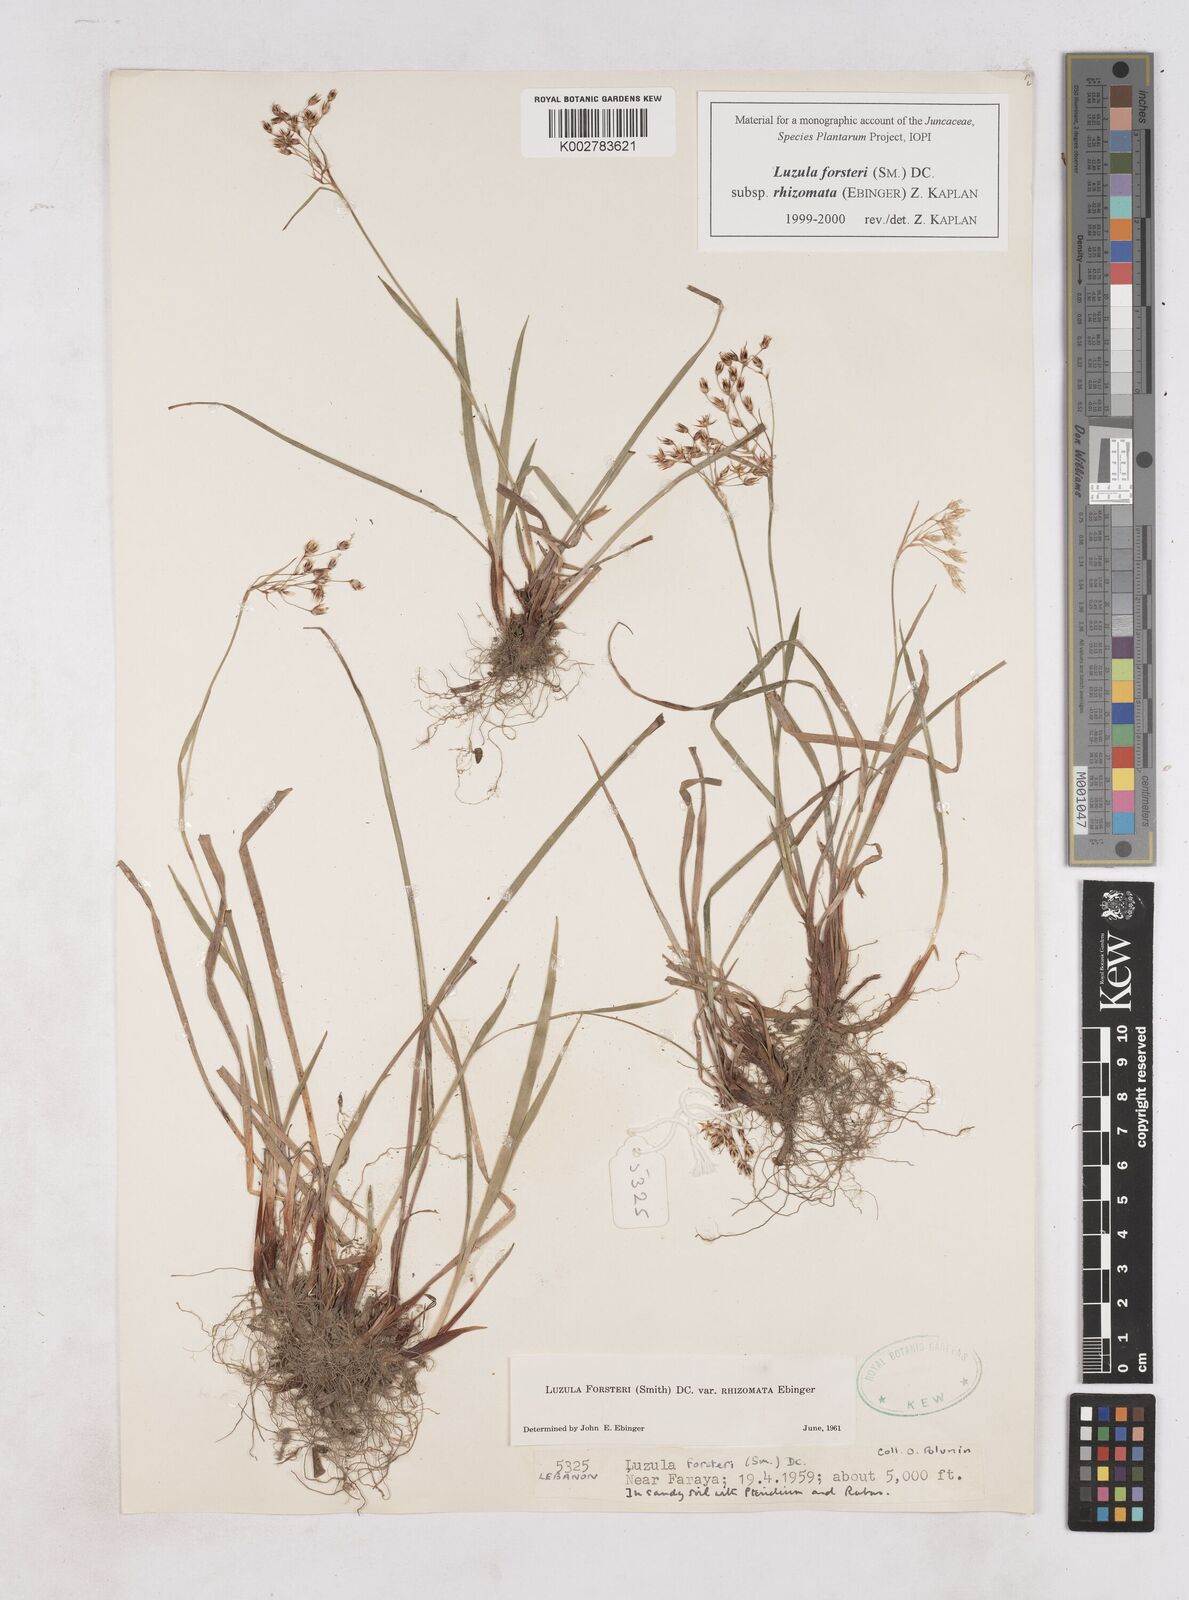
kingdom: Plantae
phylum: Tracheophyta
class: Liliopsida
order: Poales
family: Juncaceae
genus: Luzula
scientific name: Luzula forsteri
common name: Southern wood-rush
